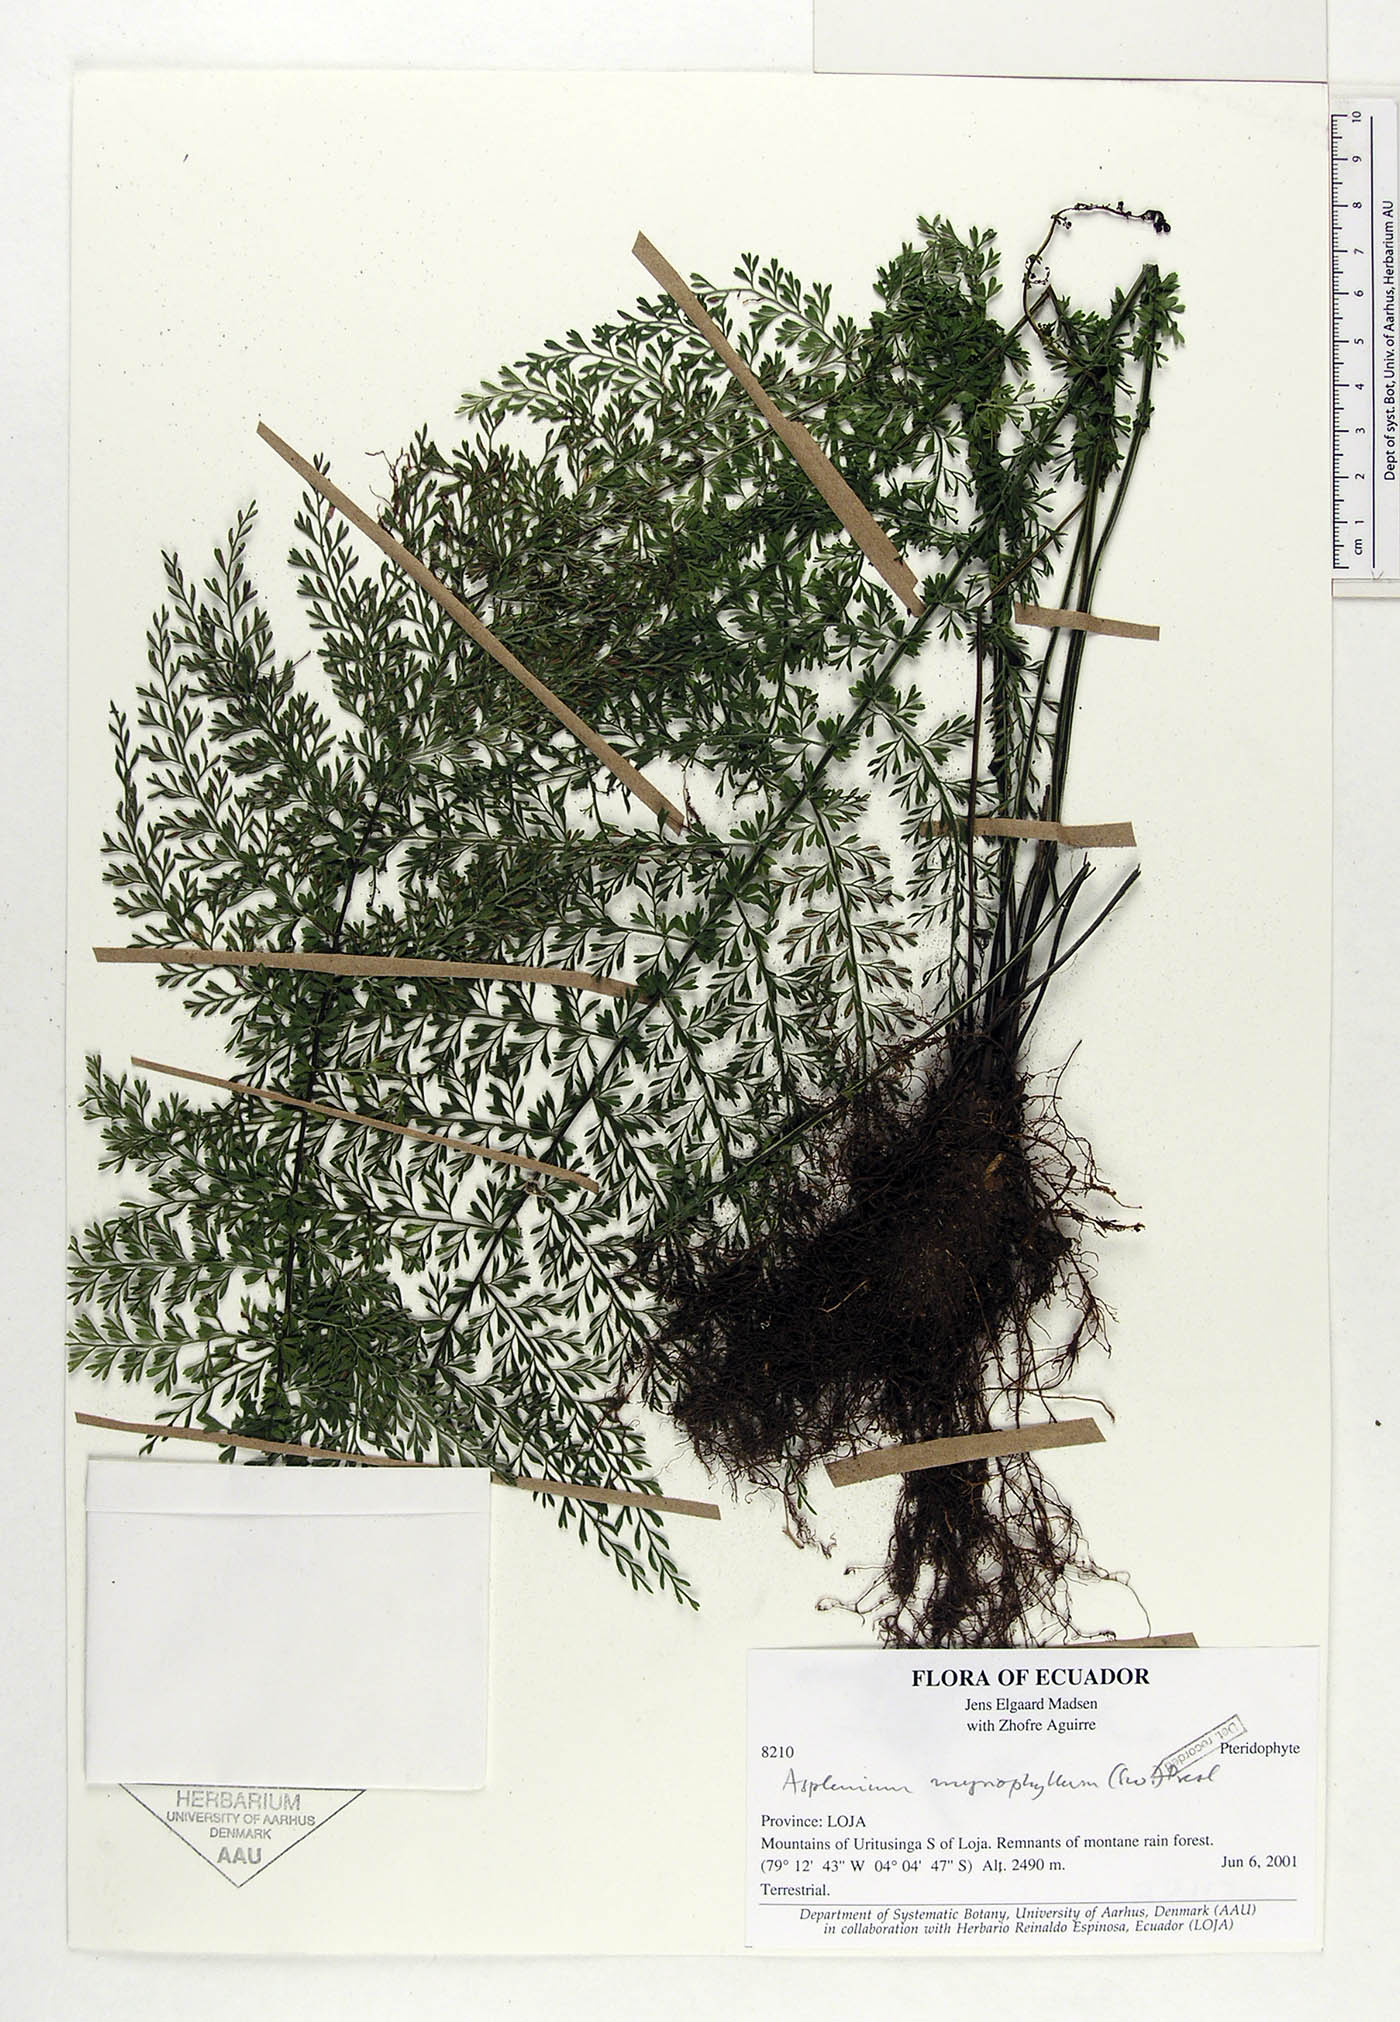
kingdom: Plantae
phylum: Tracheophyta
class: Polypodiopsida
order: Polypodiales
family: Aspleniaceae
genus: Asplenium
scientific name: Asplenium myriophyllum
